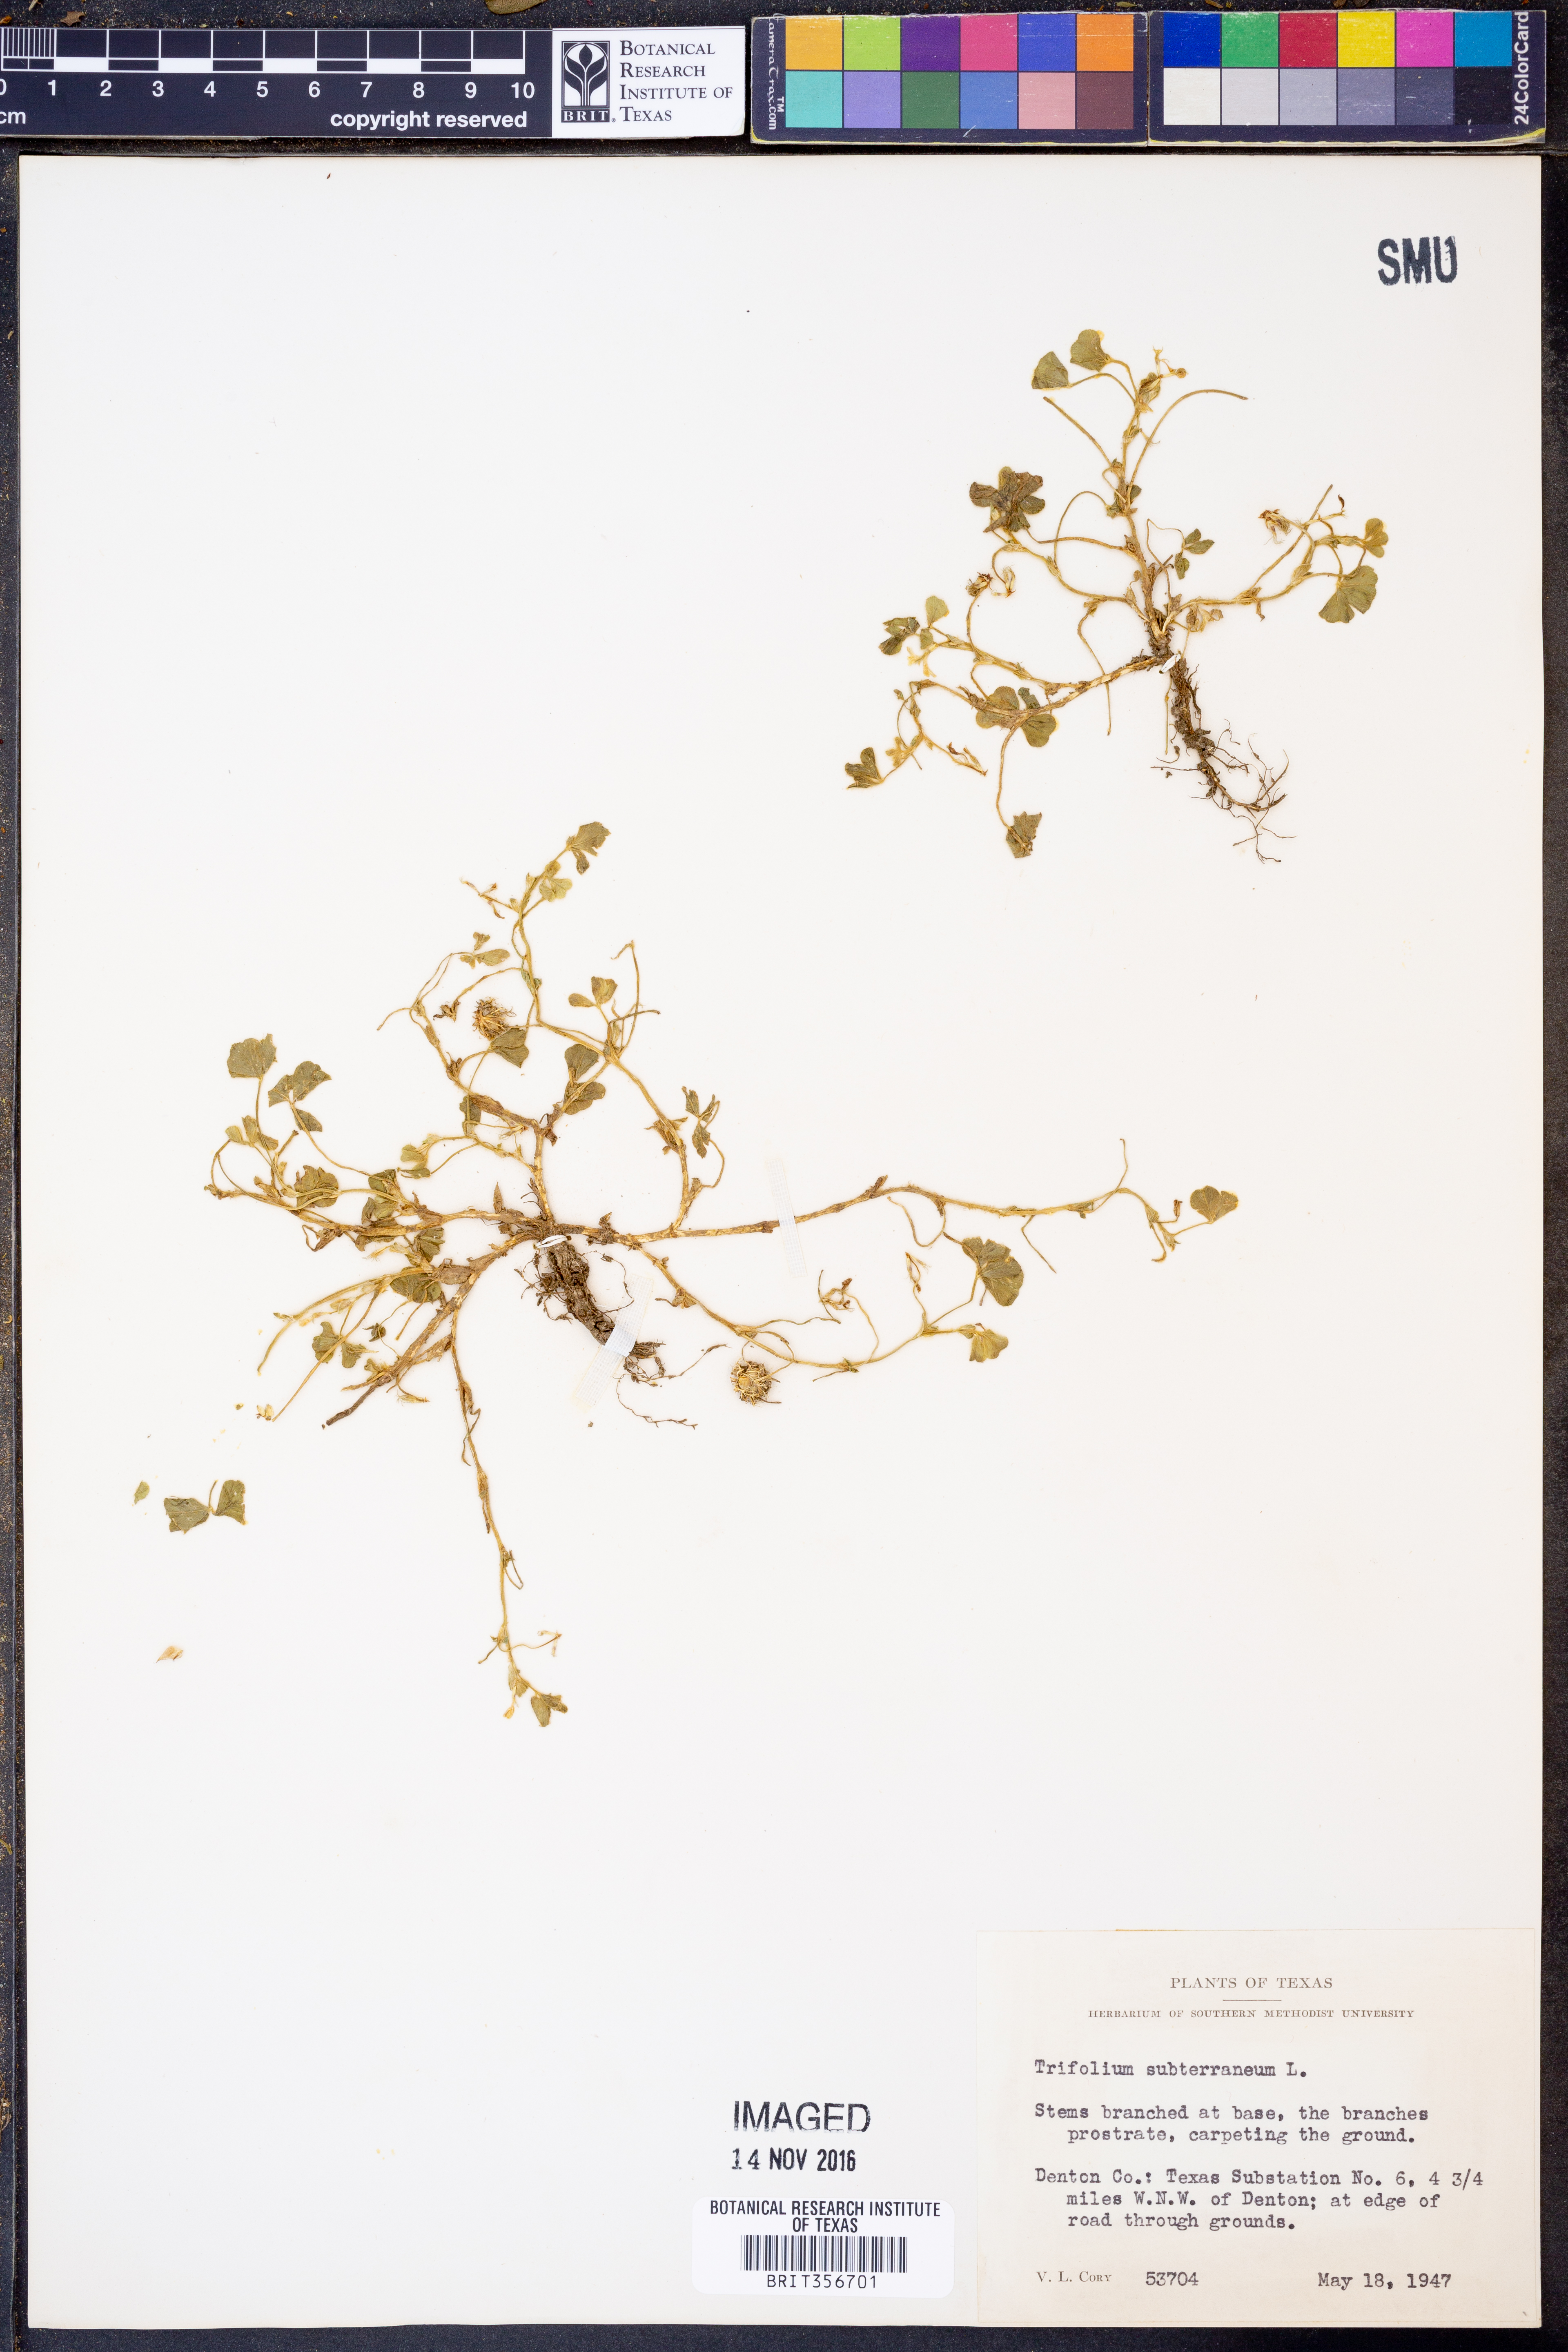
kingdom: Plantae
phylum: Tracheophyta
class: Magnoliopsida
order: Fabales
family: Fabaceae
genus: Trifolium
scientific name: Trifolium subterraneum
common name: Subterranean clover
